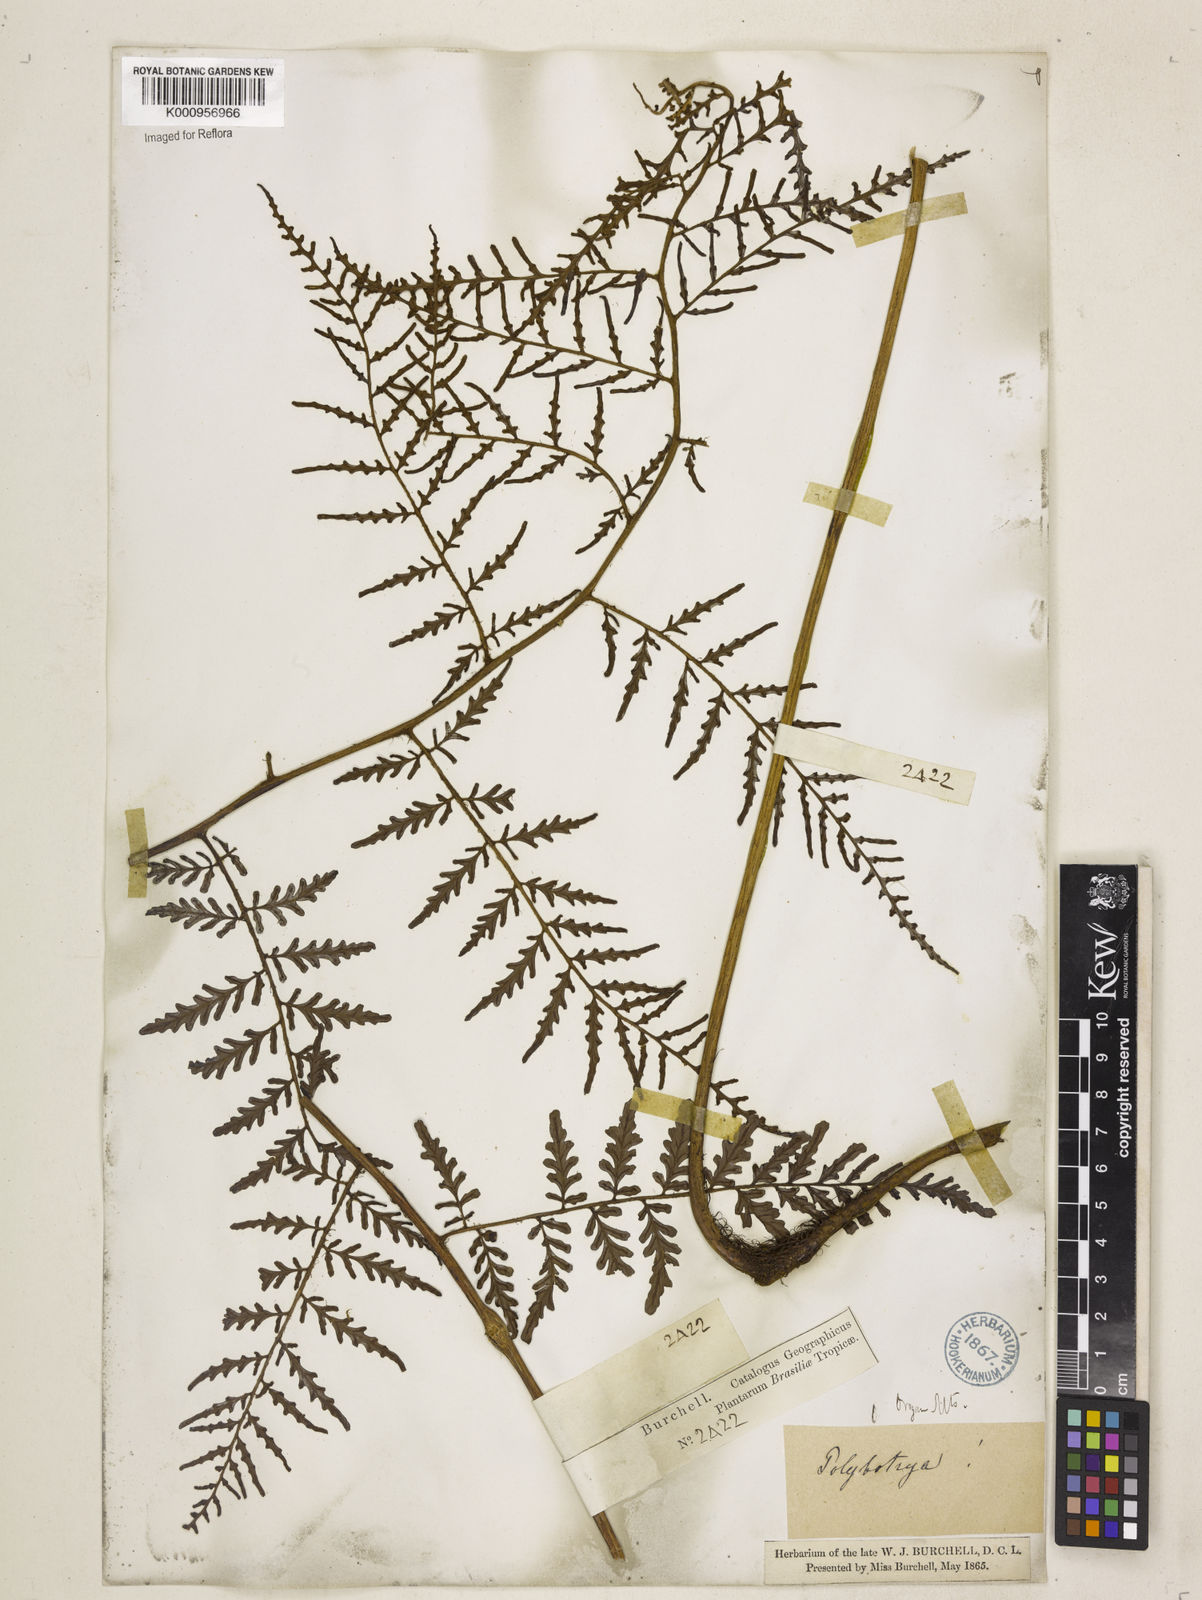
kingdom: Plantae
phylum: Tracheophyta
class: Polypodiopsida
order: Polypodiales
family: Dryopteridaceae
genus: Polybotrya
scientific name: Polybotrya osmundacea
